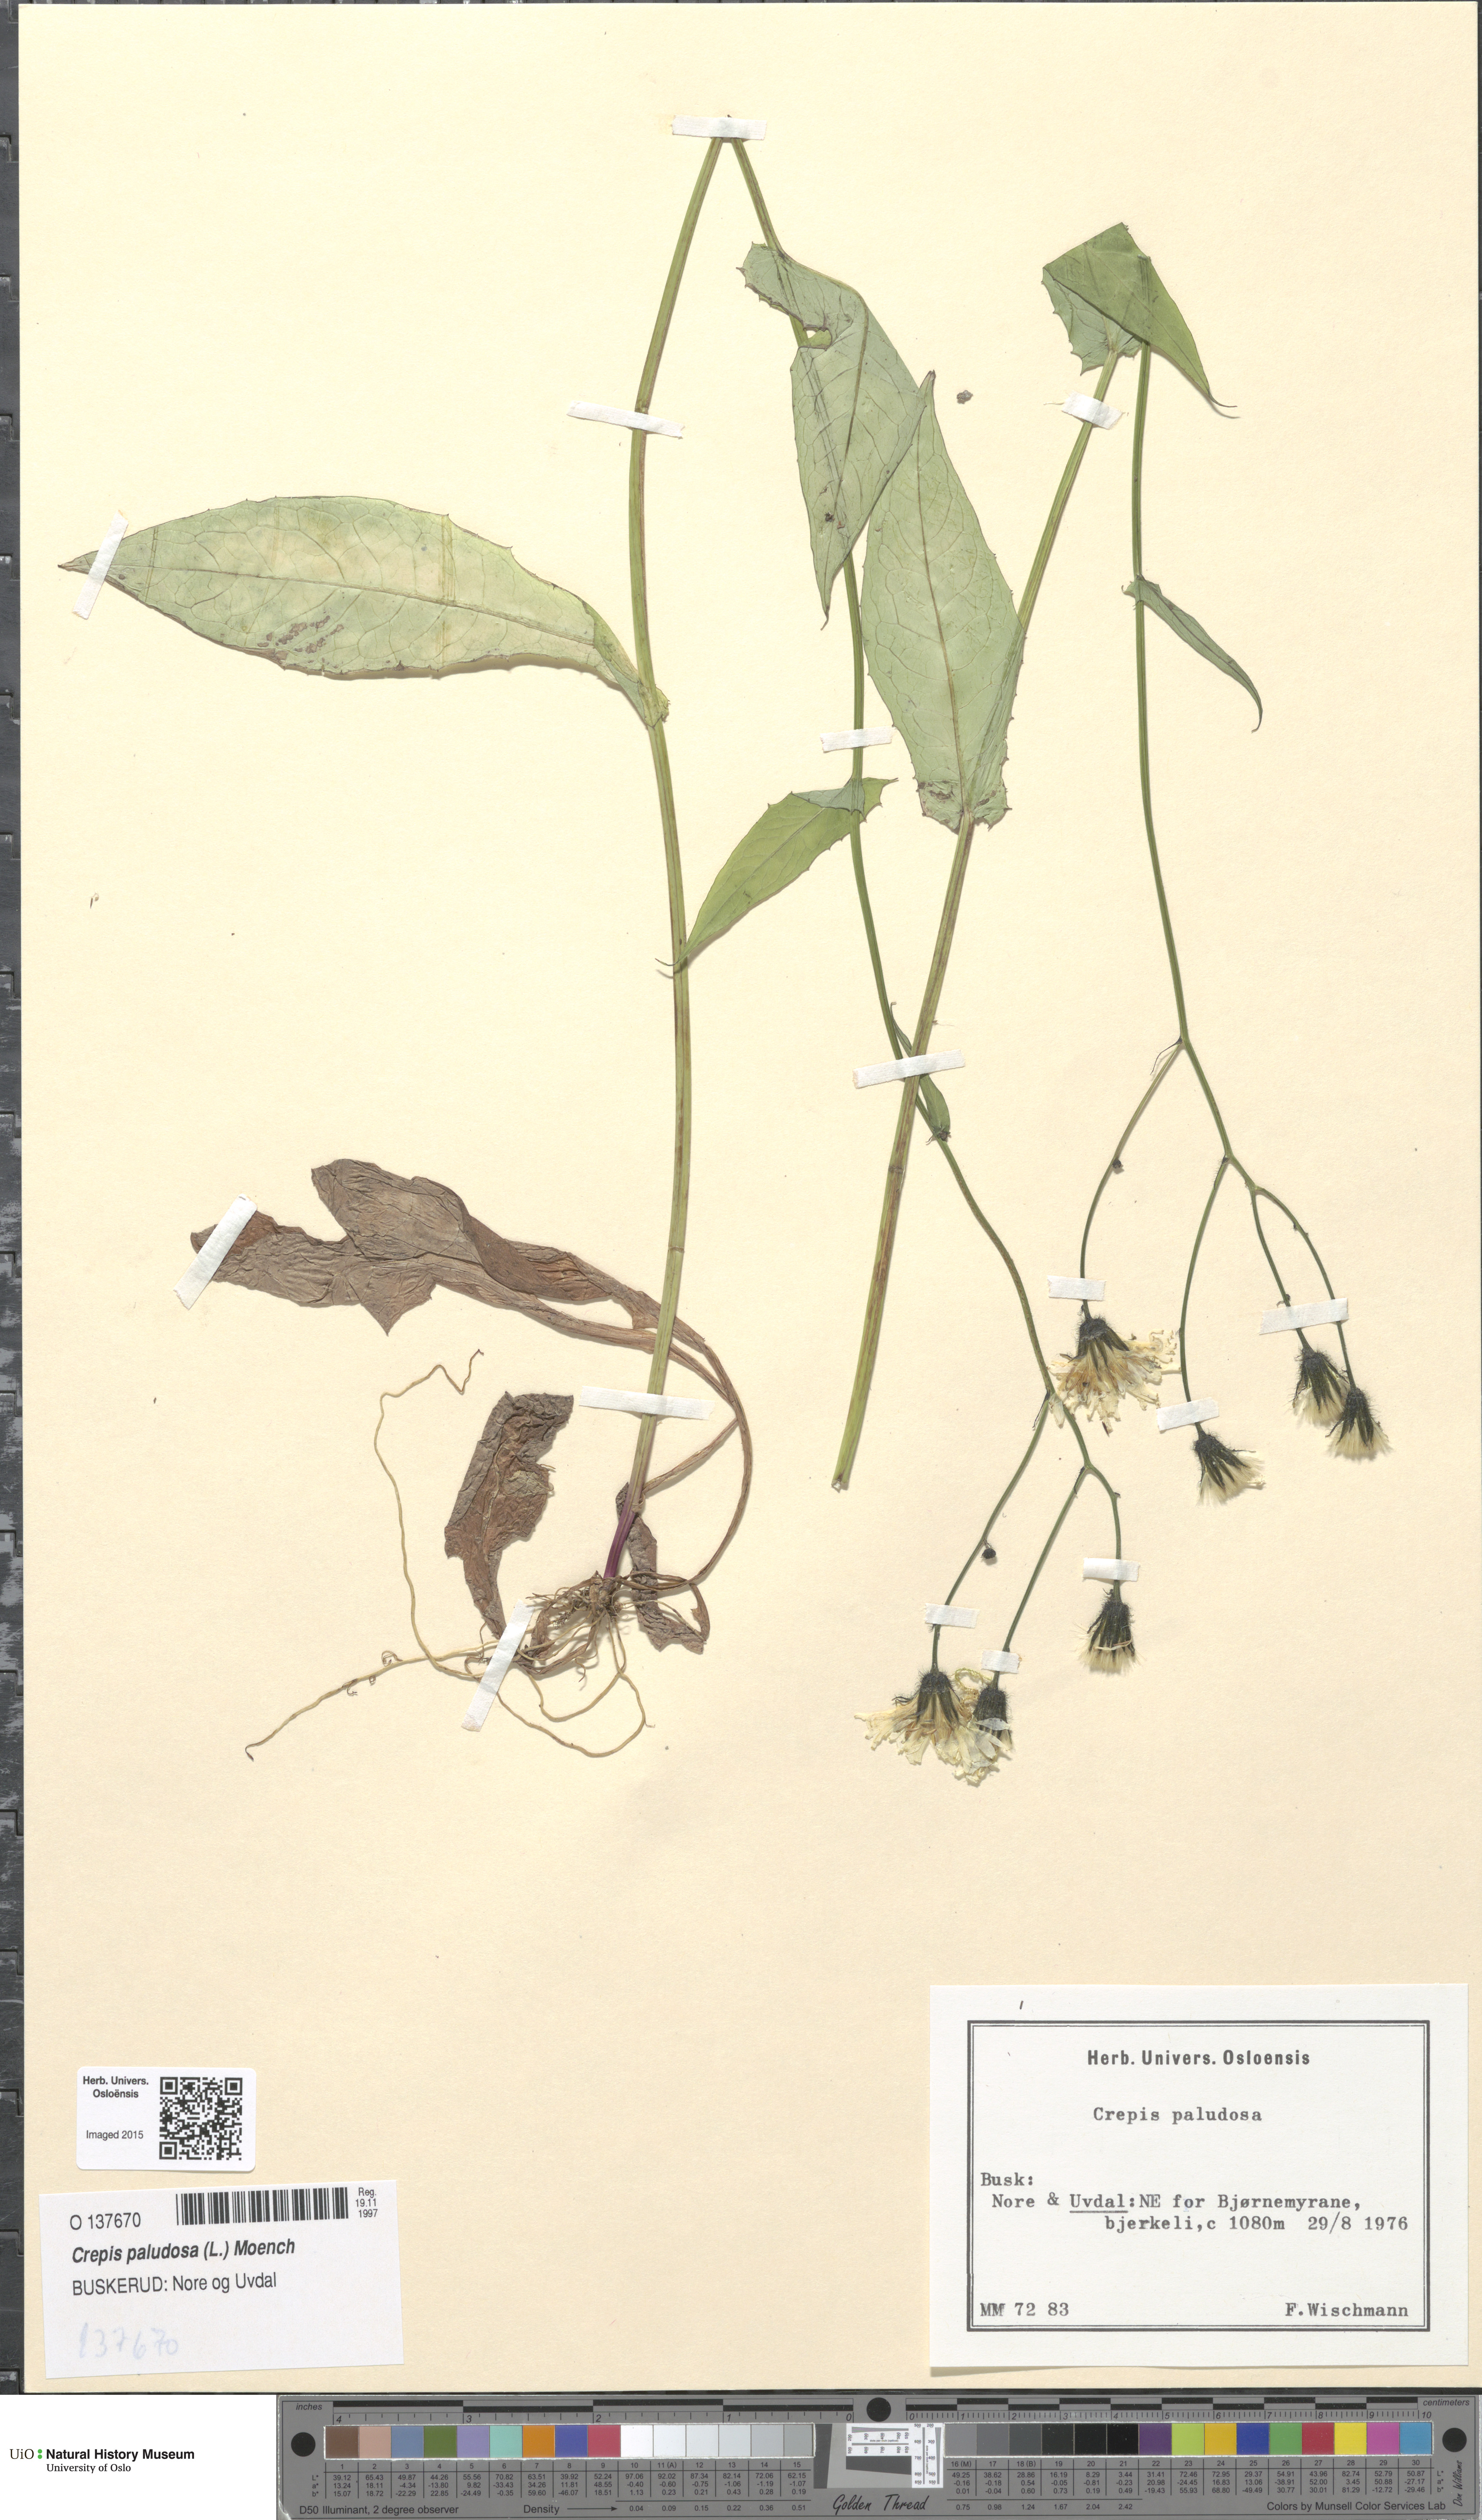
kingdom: Plantae
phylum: Tracheophyta
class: Magnoliopsida
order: Asterales
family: Asteraceae
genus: Crepis
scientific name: Crepis paludosa
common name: Marsh hawk's-beard
